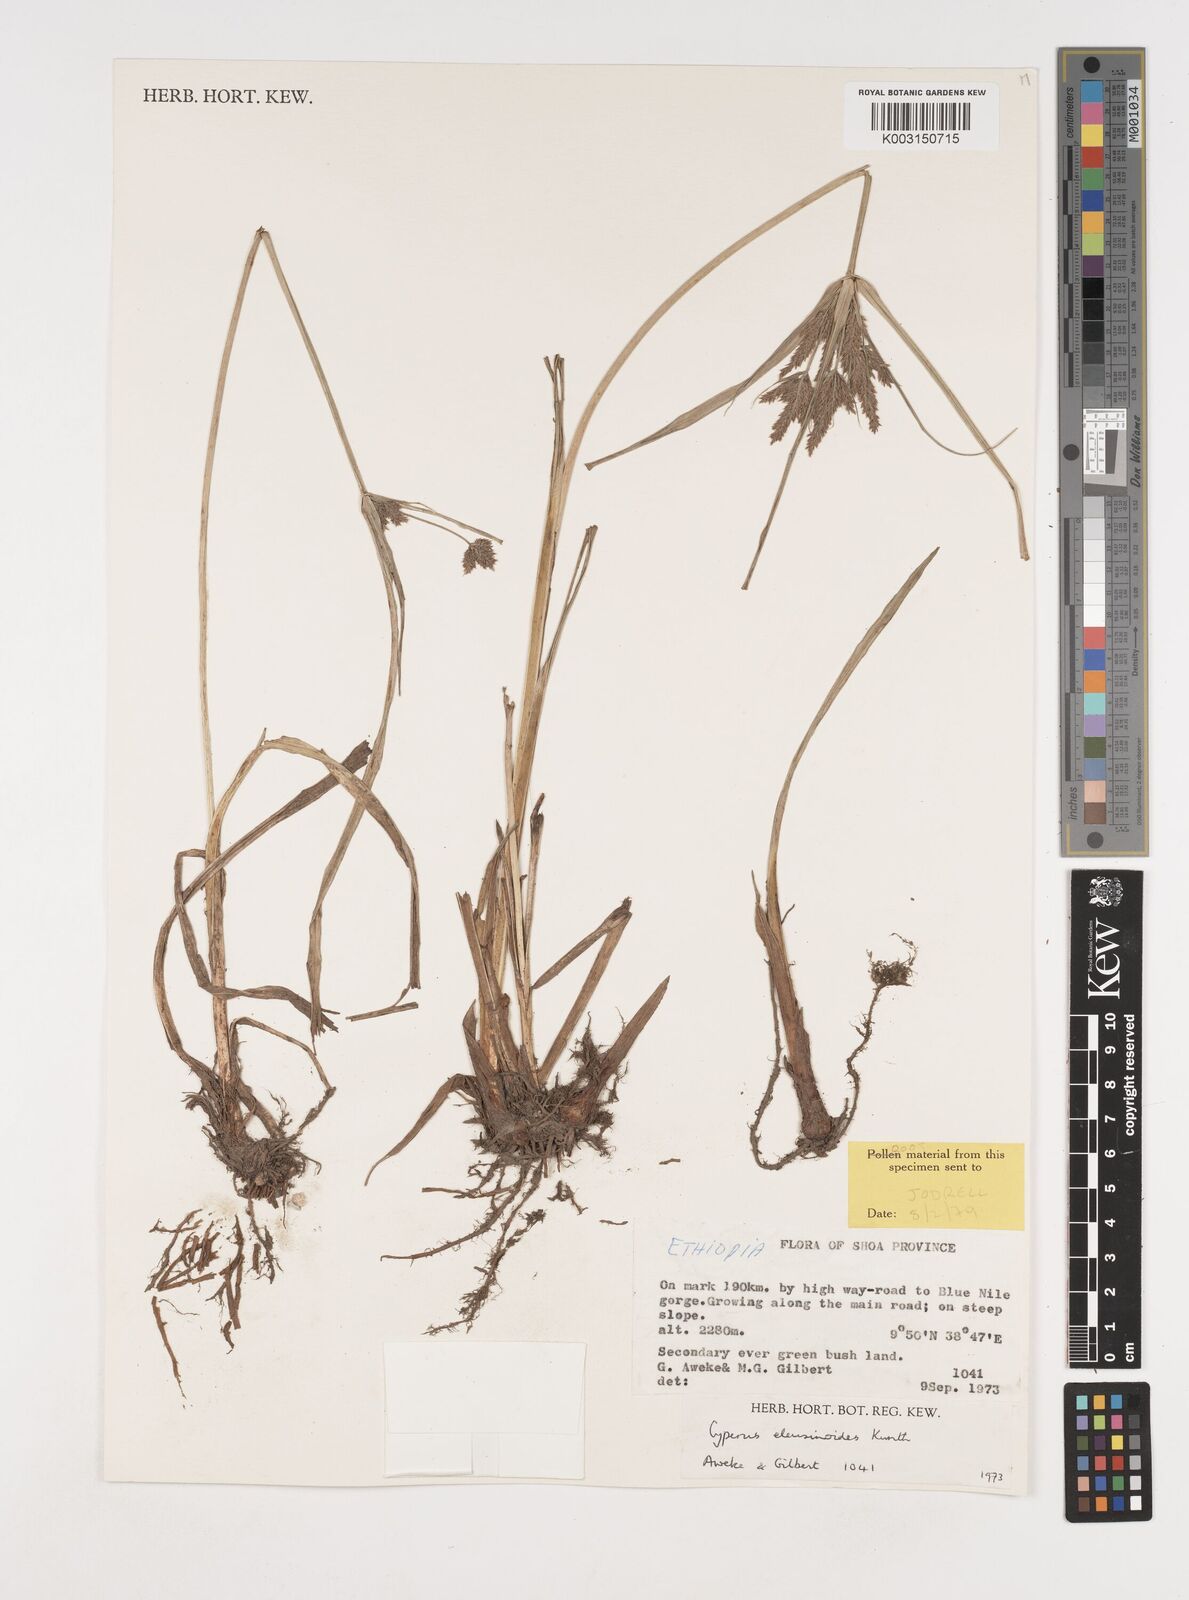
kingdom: Plantae
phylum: Tracheophyta
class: Liliopsida
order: Poales
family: Cyperaceae
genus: Cyperus
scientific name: Cyperus nutans
